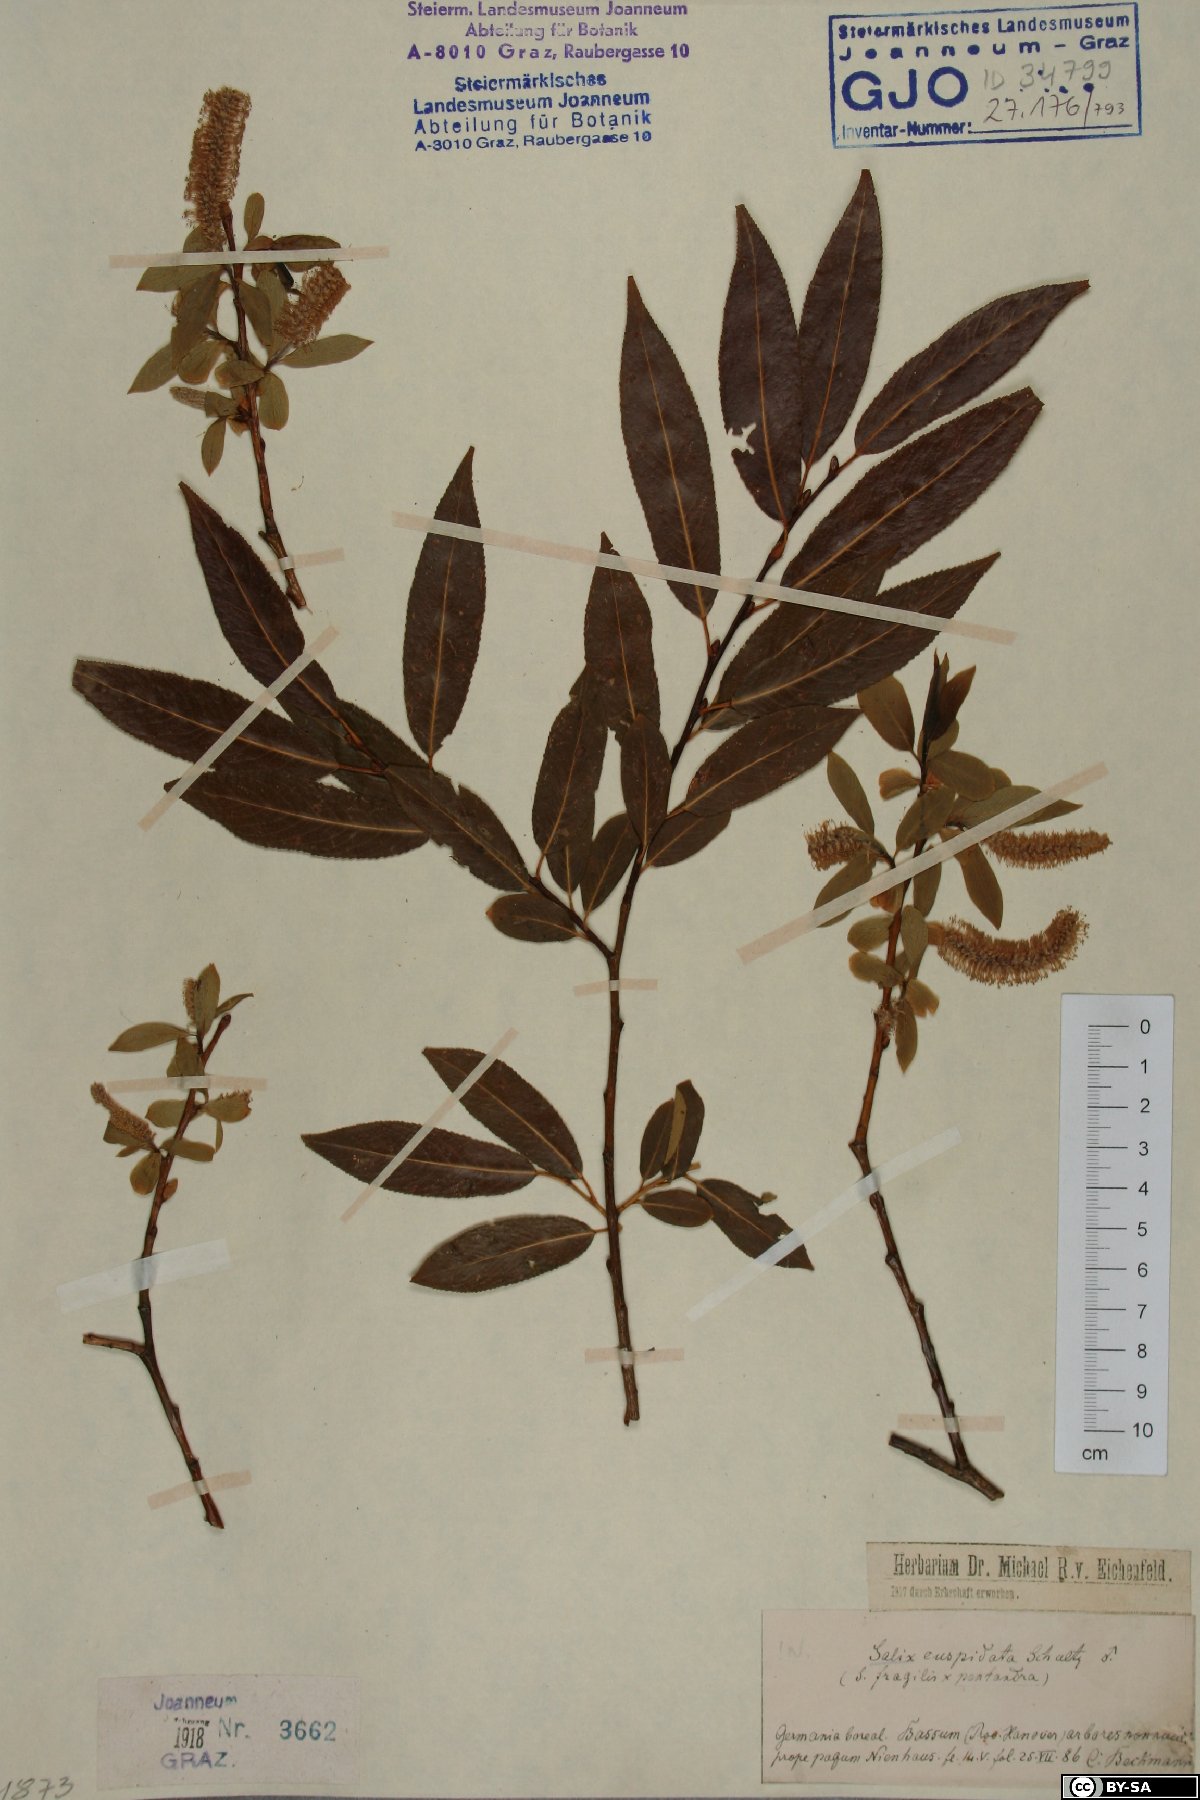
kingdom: Plantae
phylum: Tracheophyta
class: Magnoliopsida
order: Malpighiales
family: Salicaceae
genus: Salix
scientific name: Salix meyeriana
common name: Shiny-leaf willow
